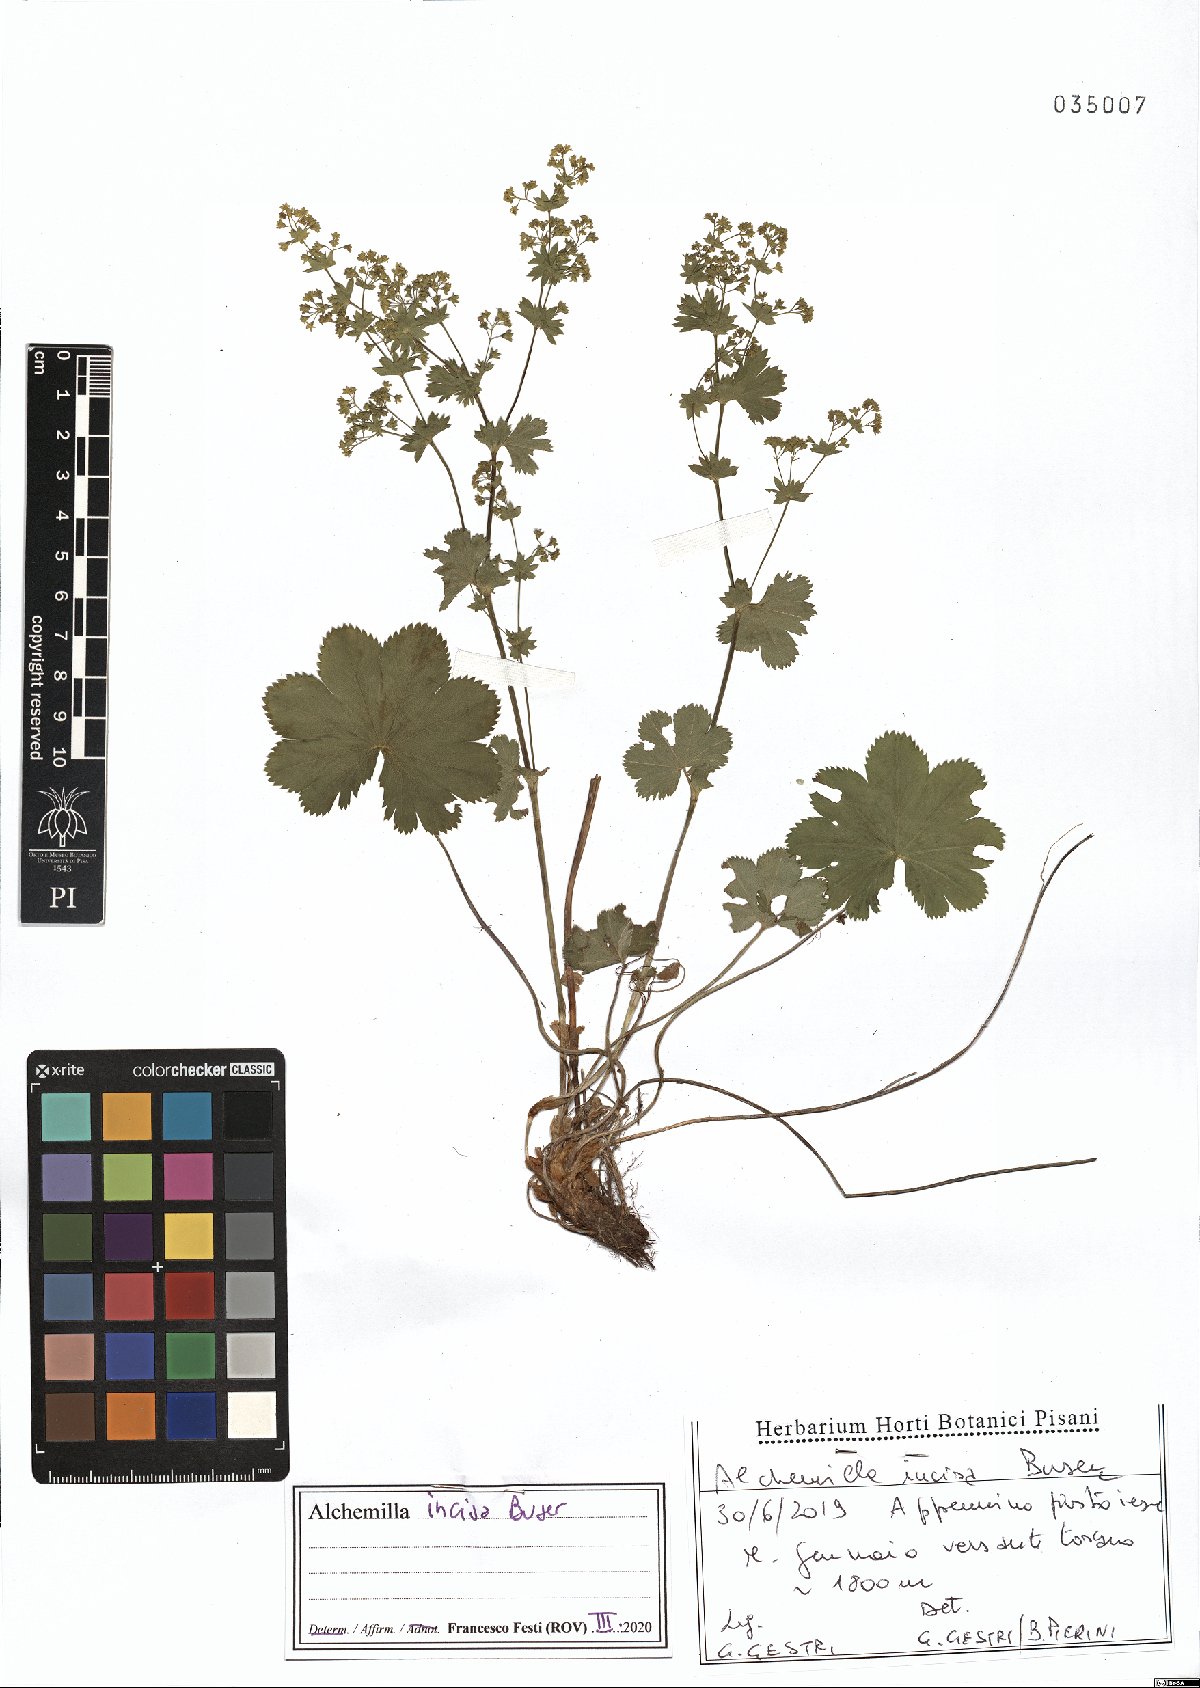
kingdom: Plantae
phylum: Tracheophyta
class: Magnoliopsida
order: Rosales
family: Rosaceae
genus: Alchemilla
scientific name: Alchemilla incisa
